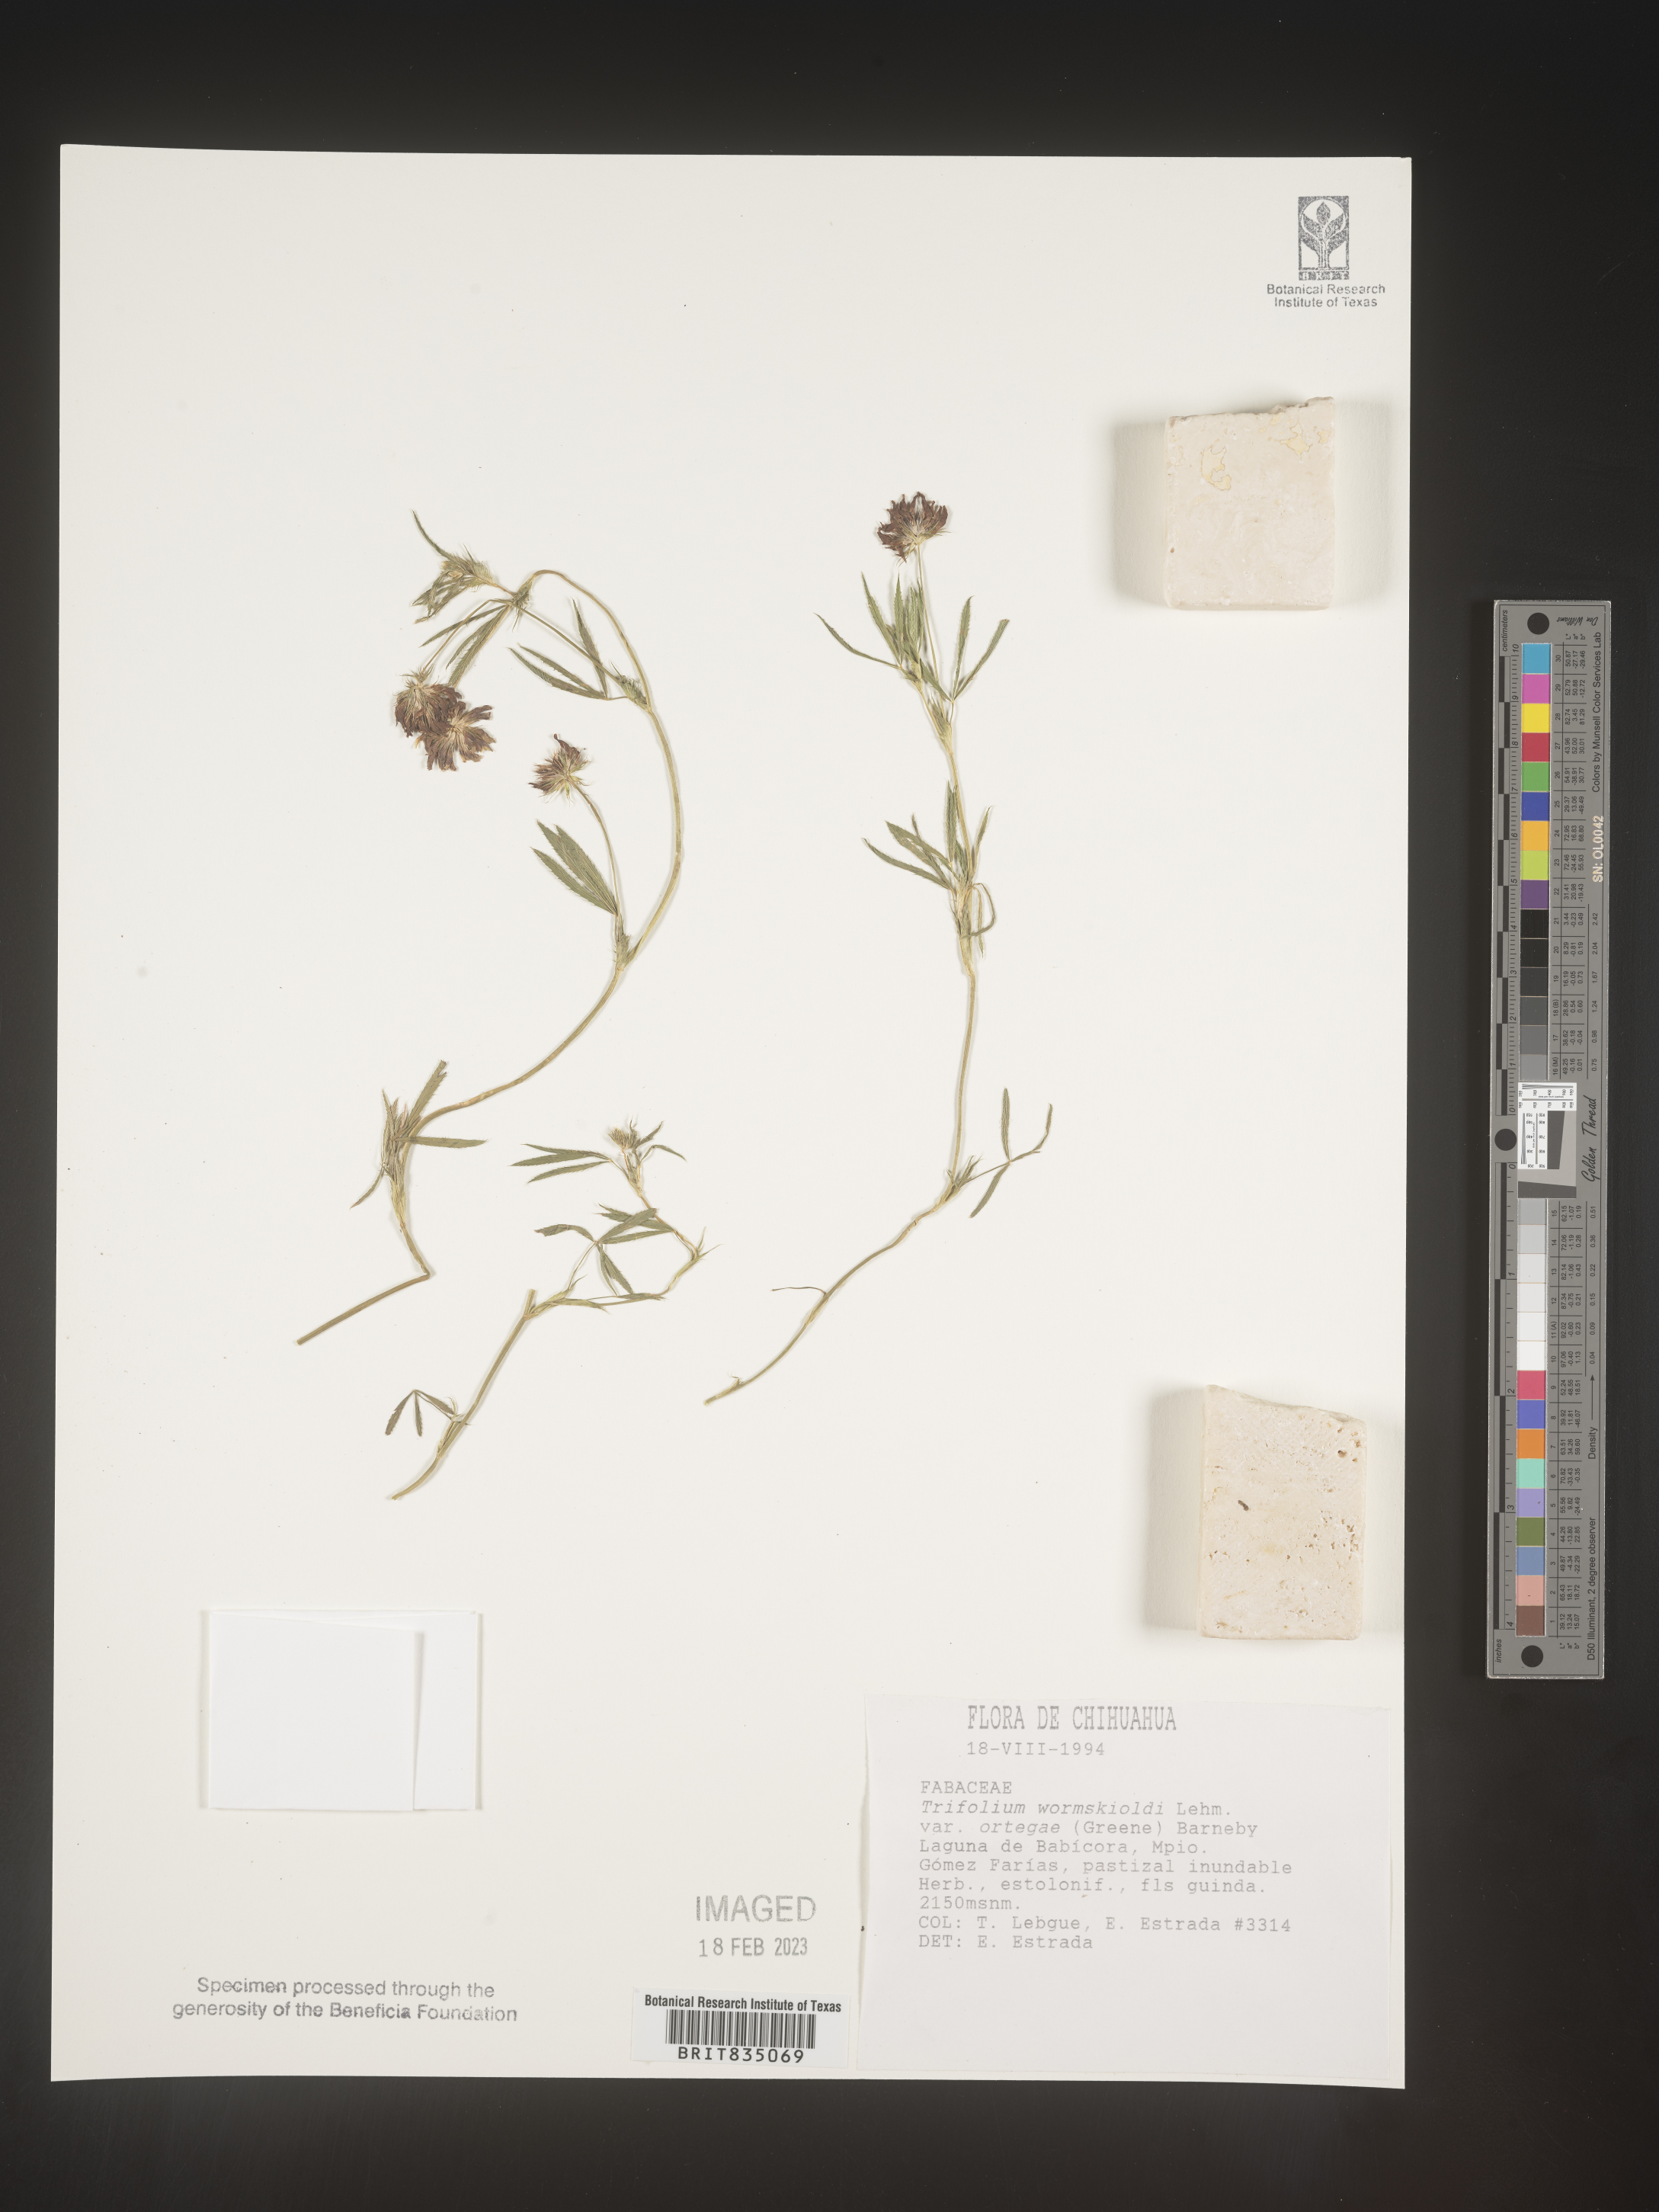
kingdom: Plantae
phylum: Tracheophyta
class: Magnoliopsida
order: Fabales
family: Fabaceae
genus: Trifolium
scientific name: Trifolium
